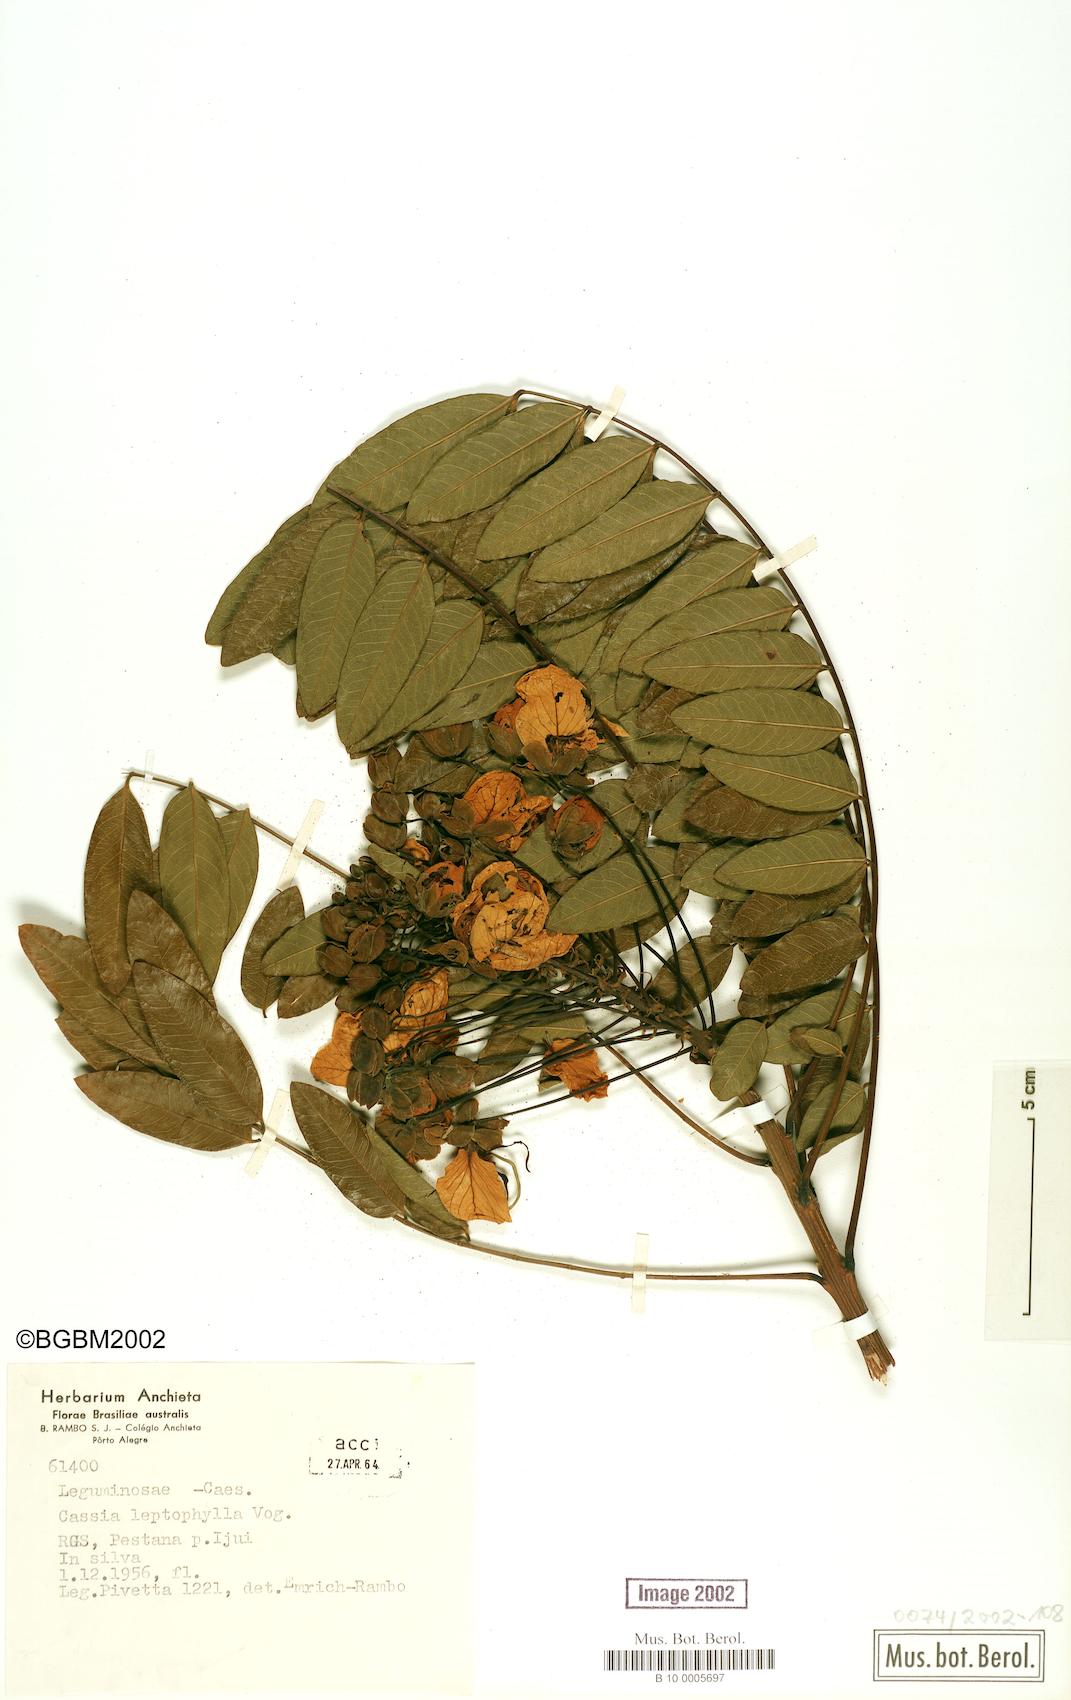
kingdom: Plantae
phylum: Tracheophyta
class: Magnoliopsida
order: Fabales
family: Fabaceae
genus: Cassia
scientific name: Cassia leptophylla
